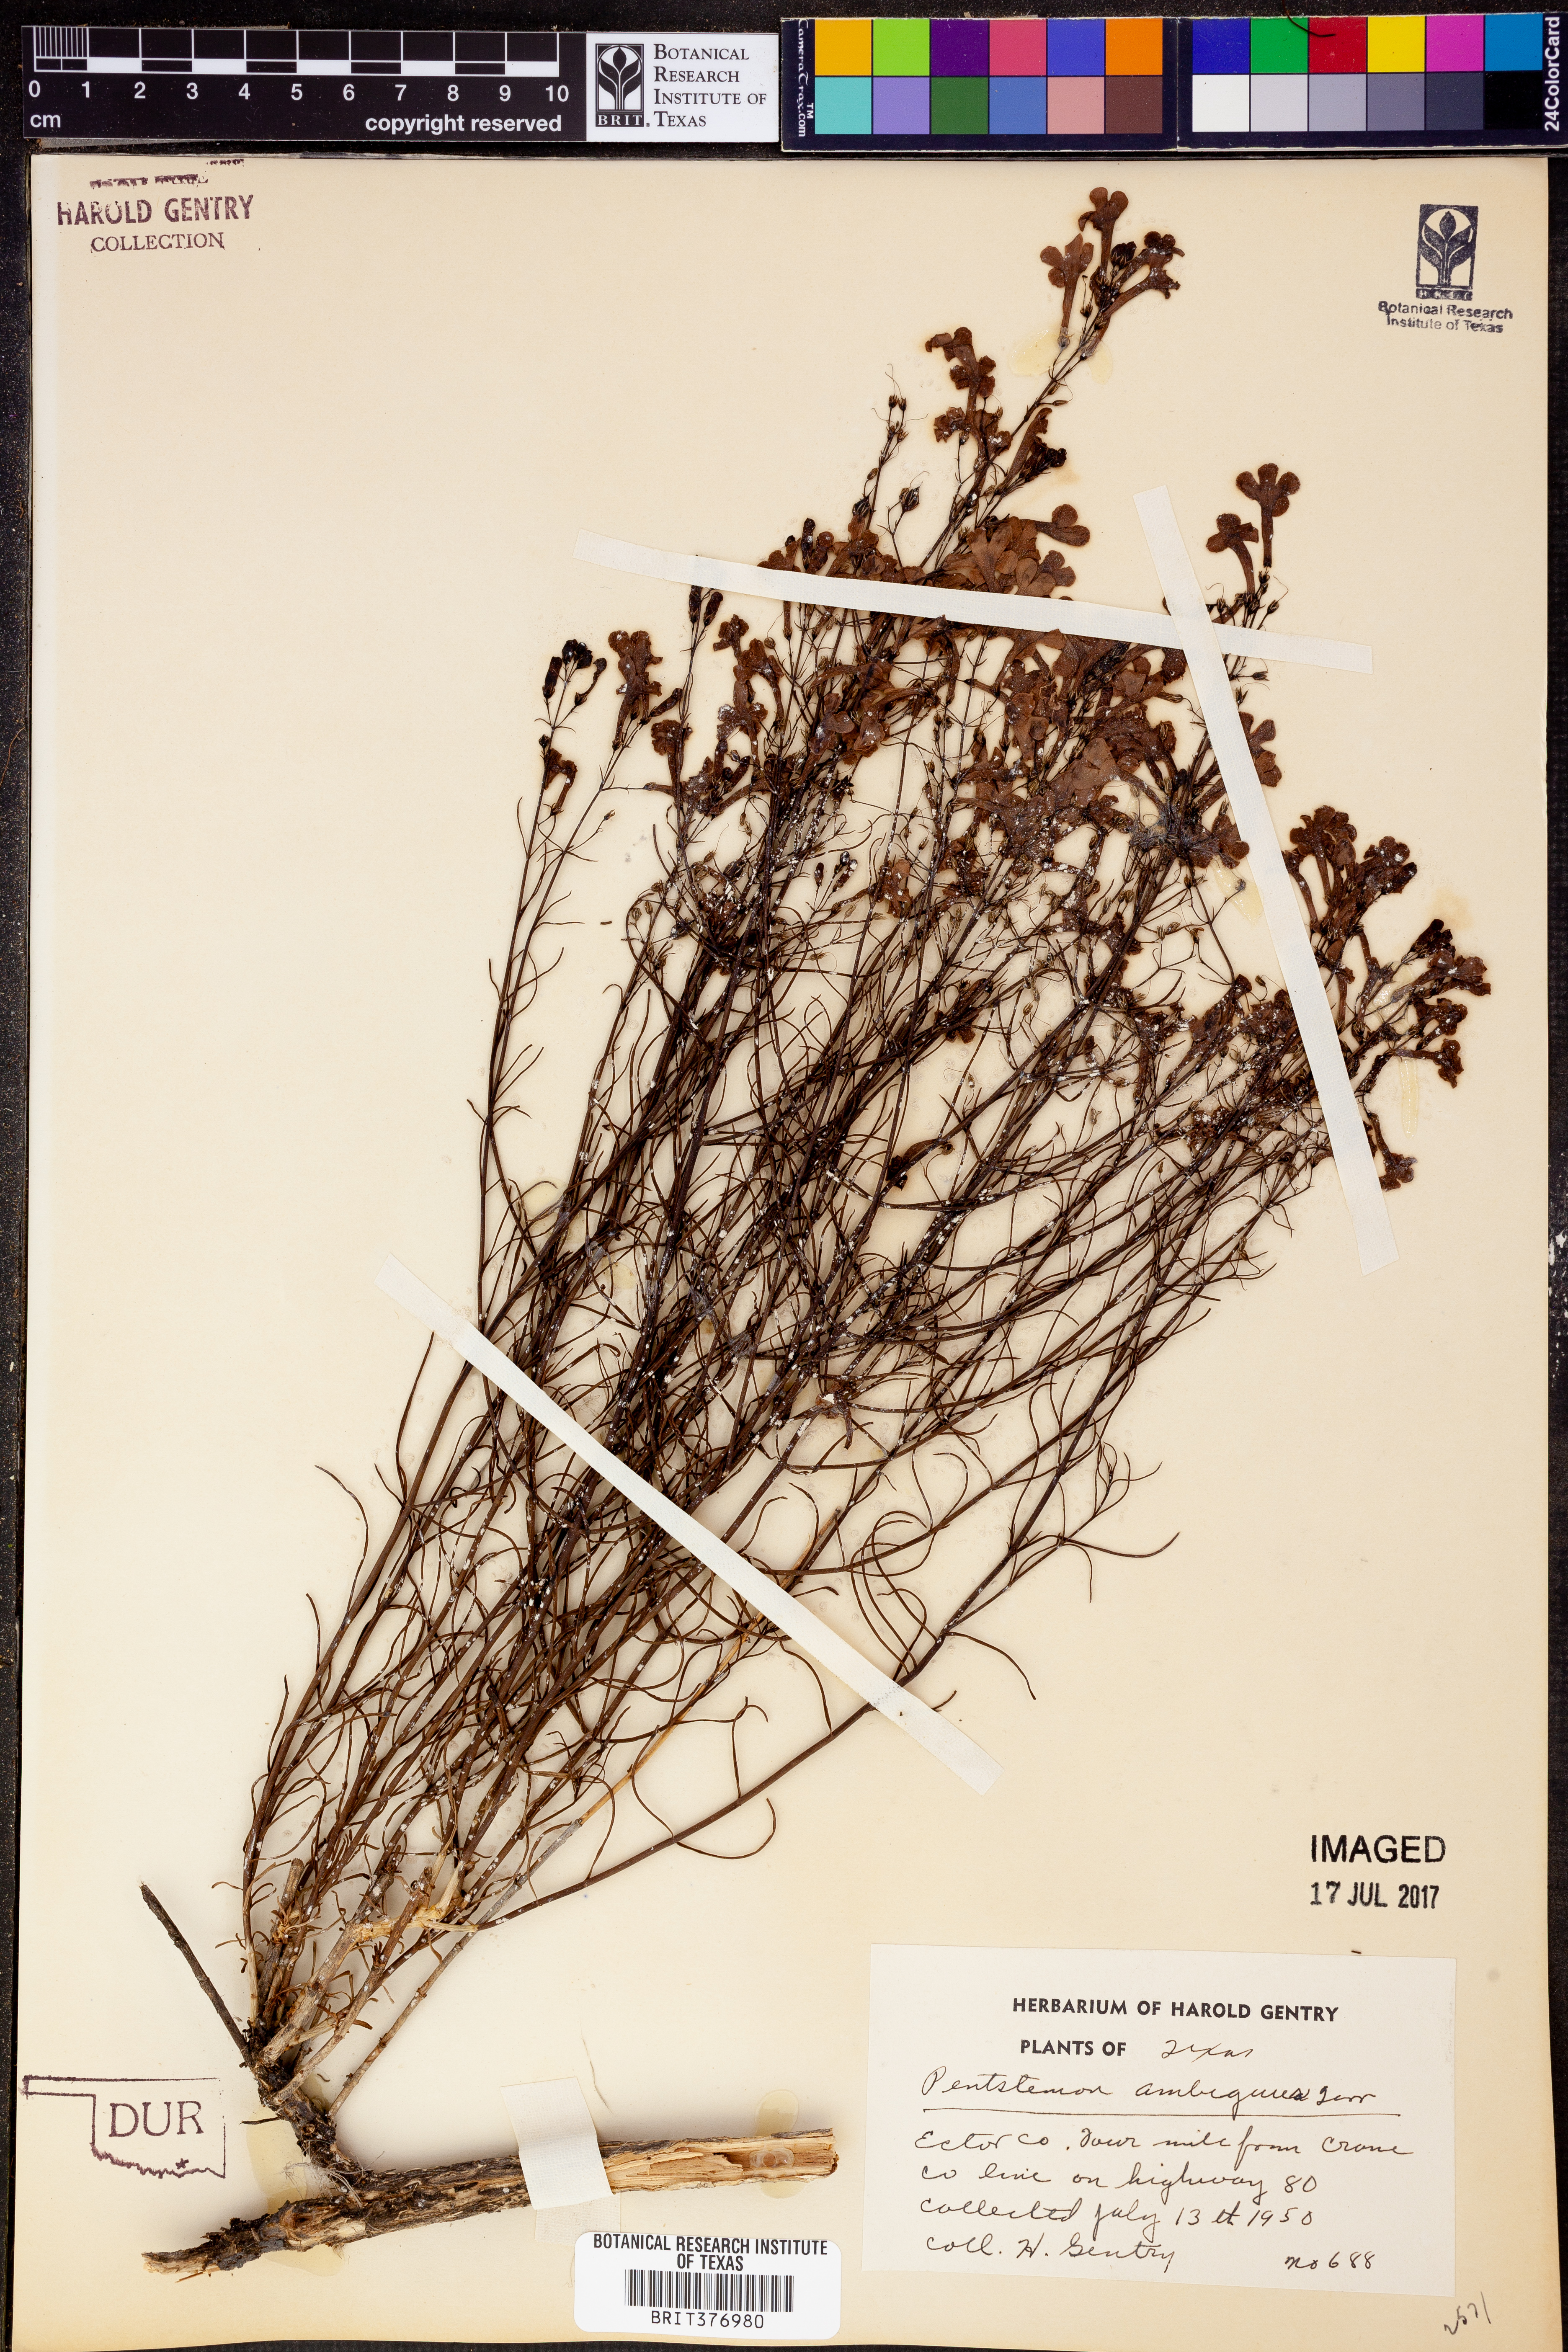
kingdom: Plantae
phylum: Tracheophyta
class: Magnoliopsida
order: Lamiales
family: Plantaginaceae
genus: Penstemon
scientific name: Penstemon ambiguus
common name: Bush penstemon
